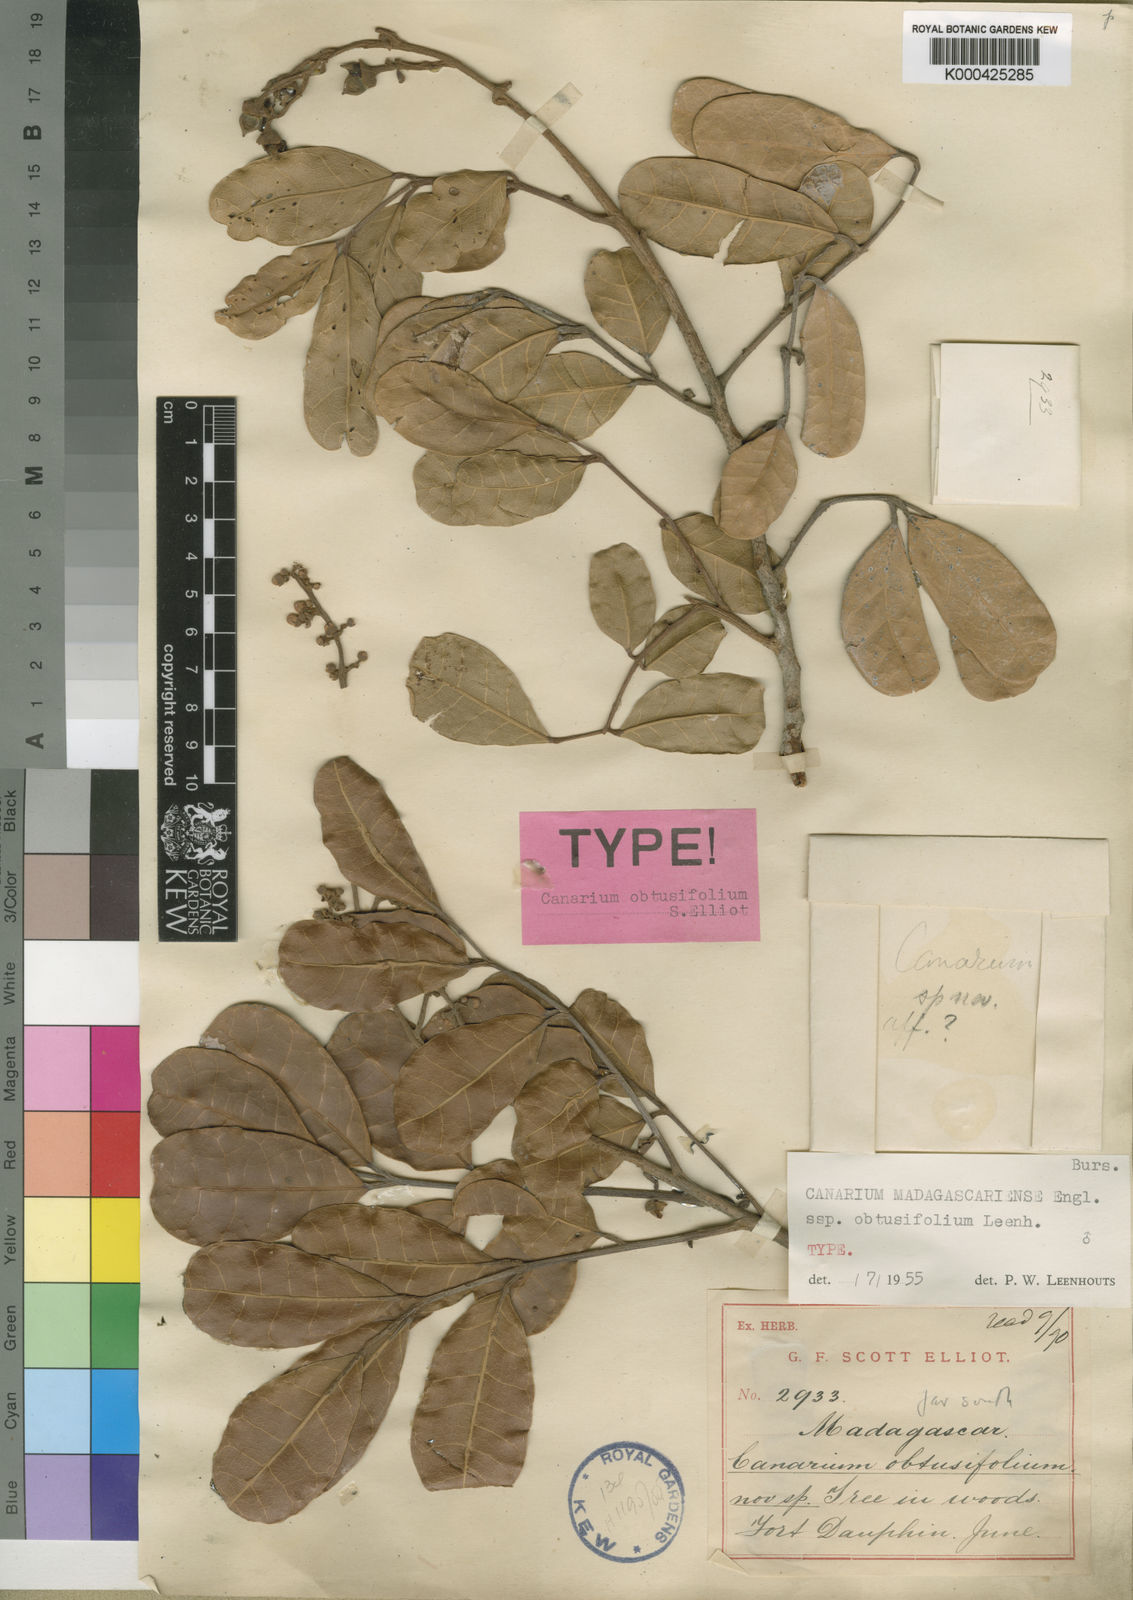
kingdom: Plantae
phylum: Tracheophyta
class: Magnoliopsida
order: Sapindales
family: Burseraceae
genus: Canarium
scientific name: Canarium boivinii
